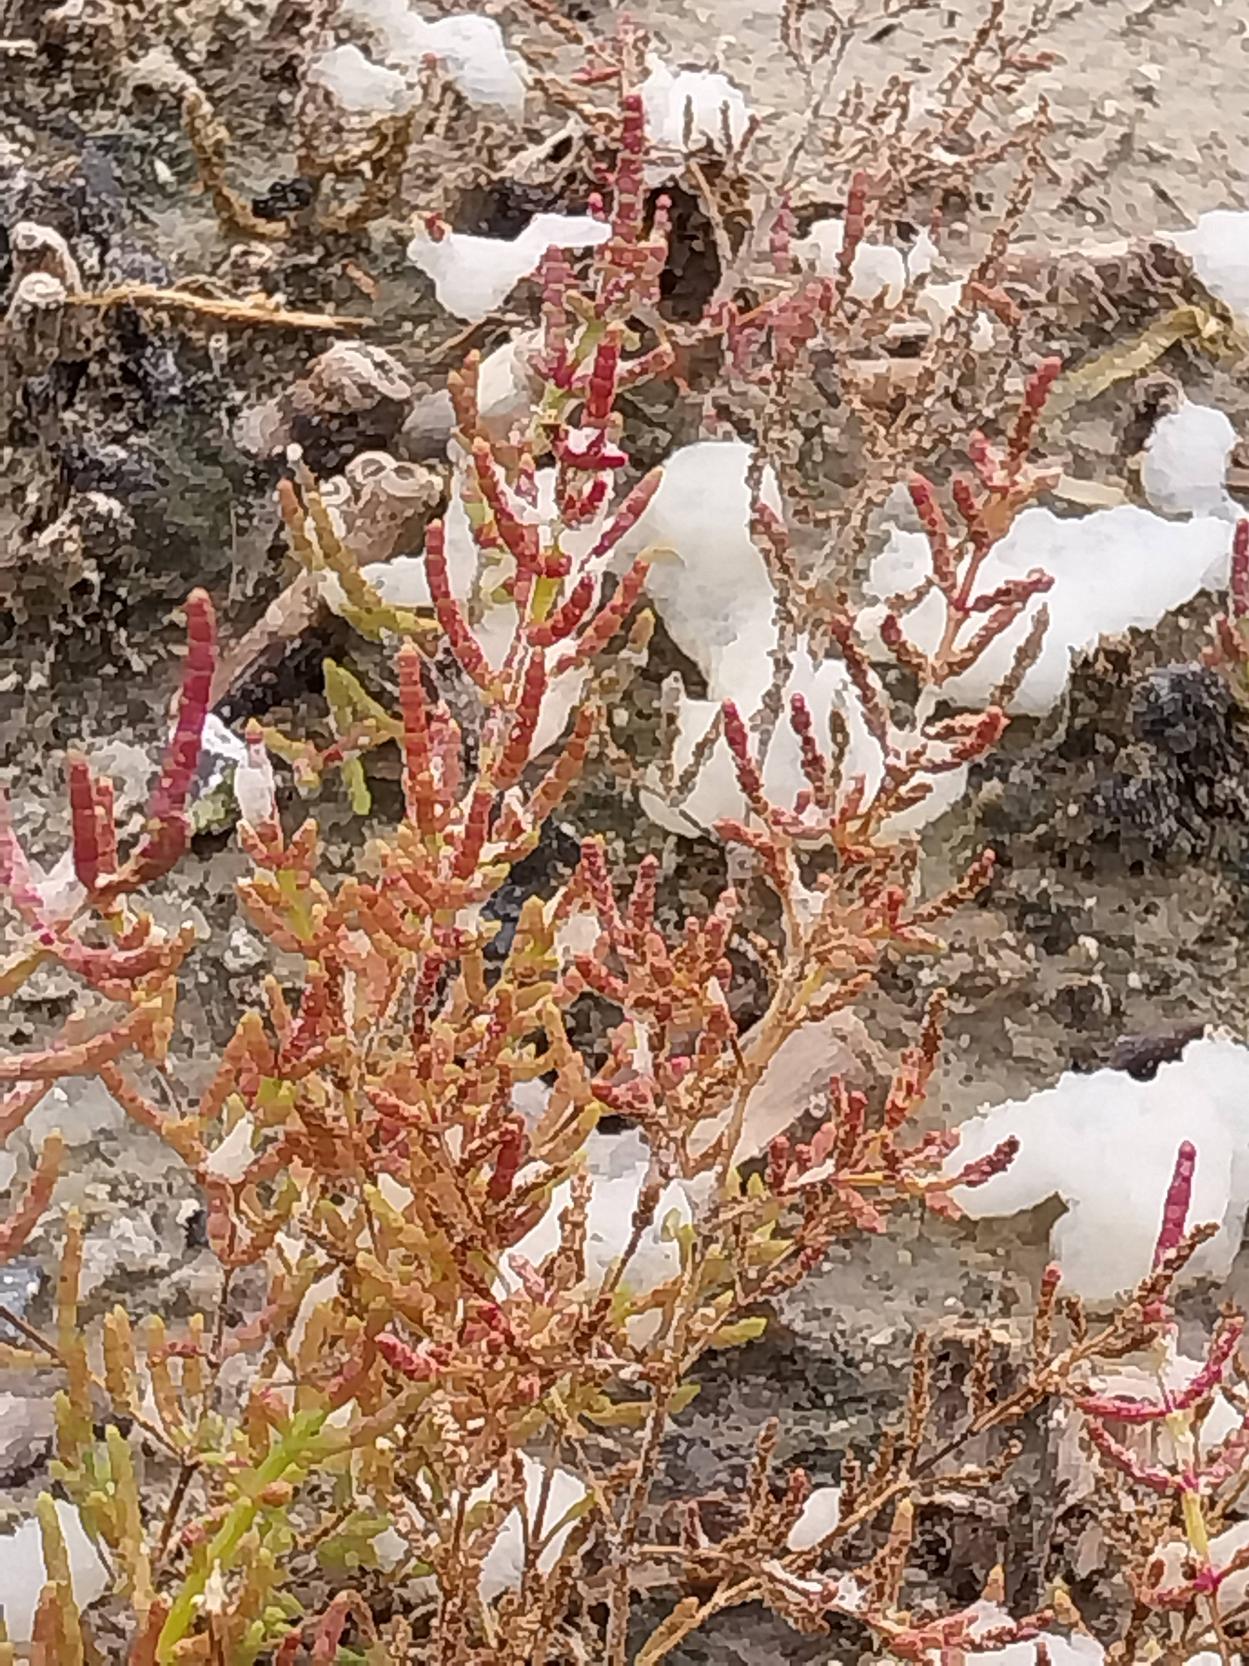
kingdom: Plantae
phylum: Tracheophyta
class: Magnoliopsida
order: Caryophyllales
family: Amaranthaceae
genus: Salicornia
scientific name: Salicornia europaea
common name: Almindelig salturt
